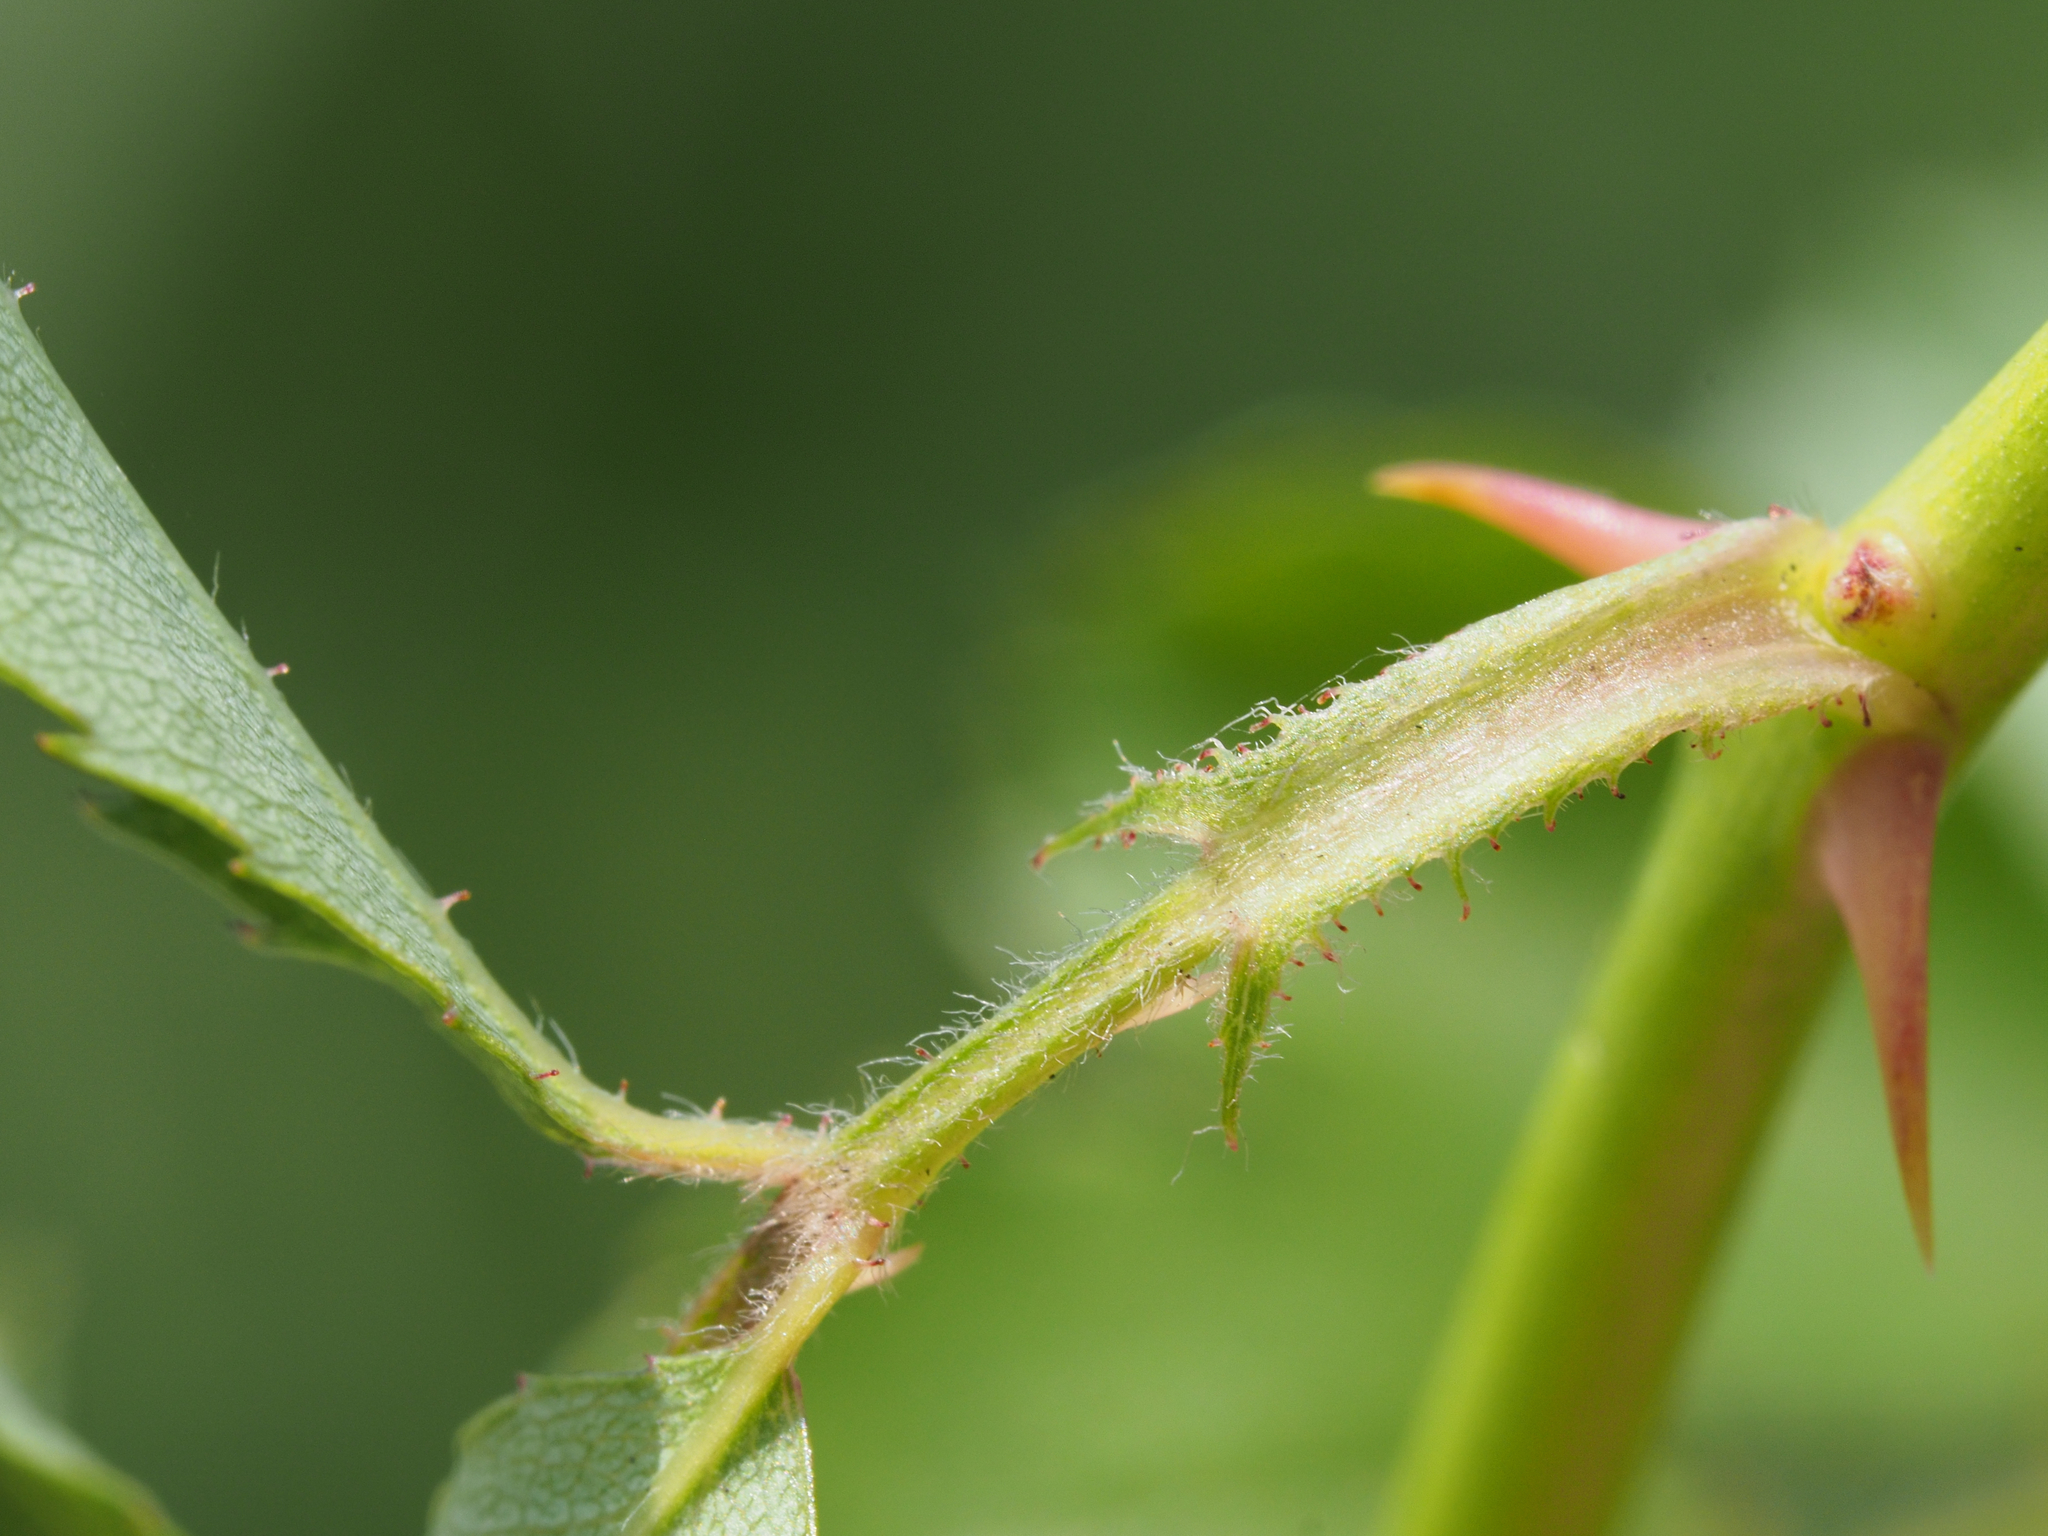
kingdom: Plantae
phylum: Tracheophyta
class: Magnoliopsida
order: Rosales
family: Rosaceae
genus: Rosa
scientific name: Rosa kwangtungensis
